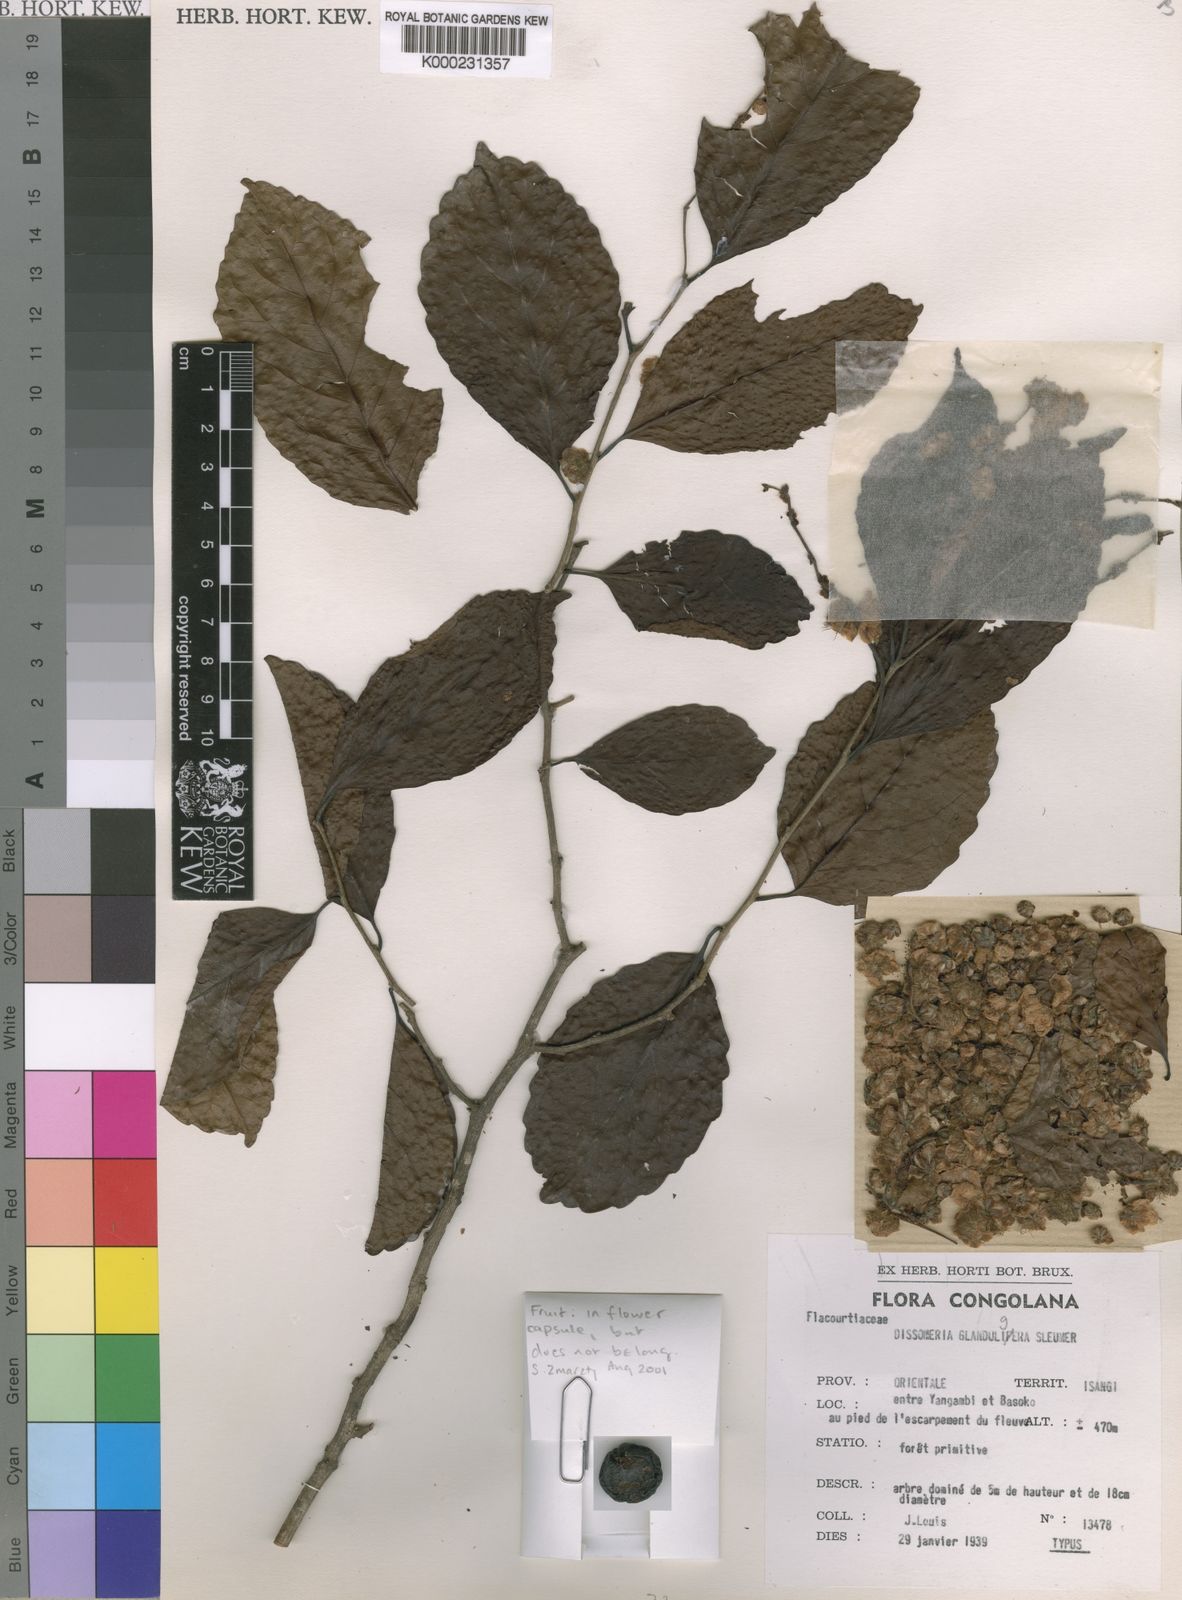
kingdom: Plantae
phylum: Tracheophyta
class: Magnoliopsida
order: Malpighiales
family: Salicaceae
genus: Dissomeria
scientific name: Dissomeria glanduligera
